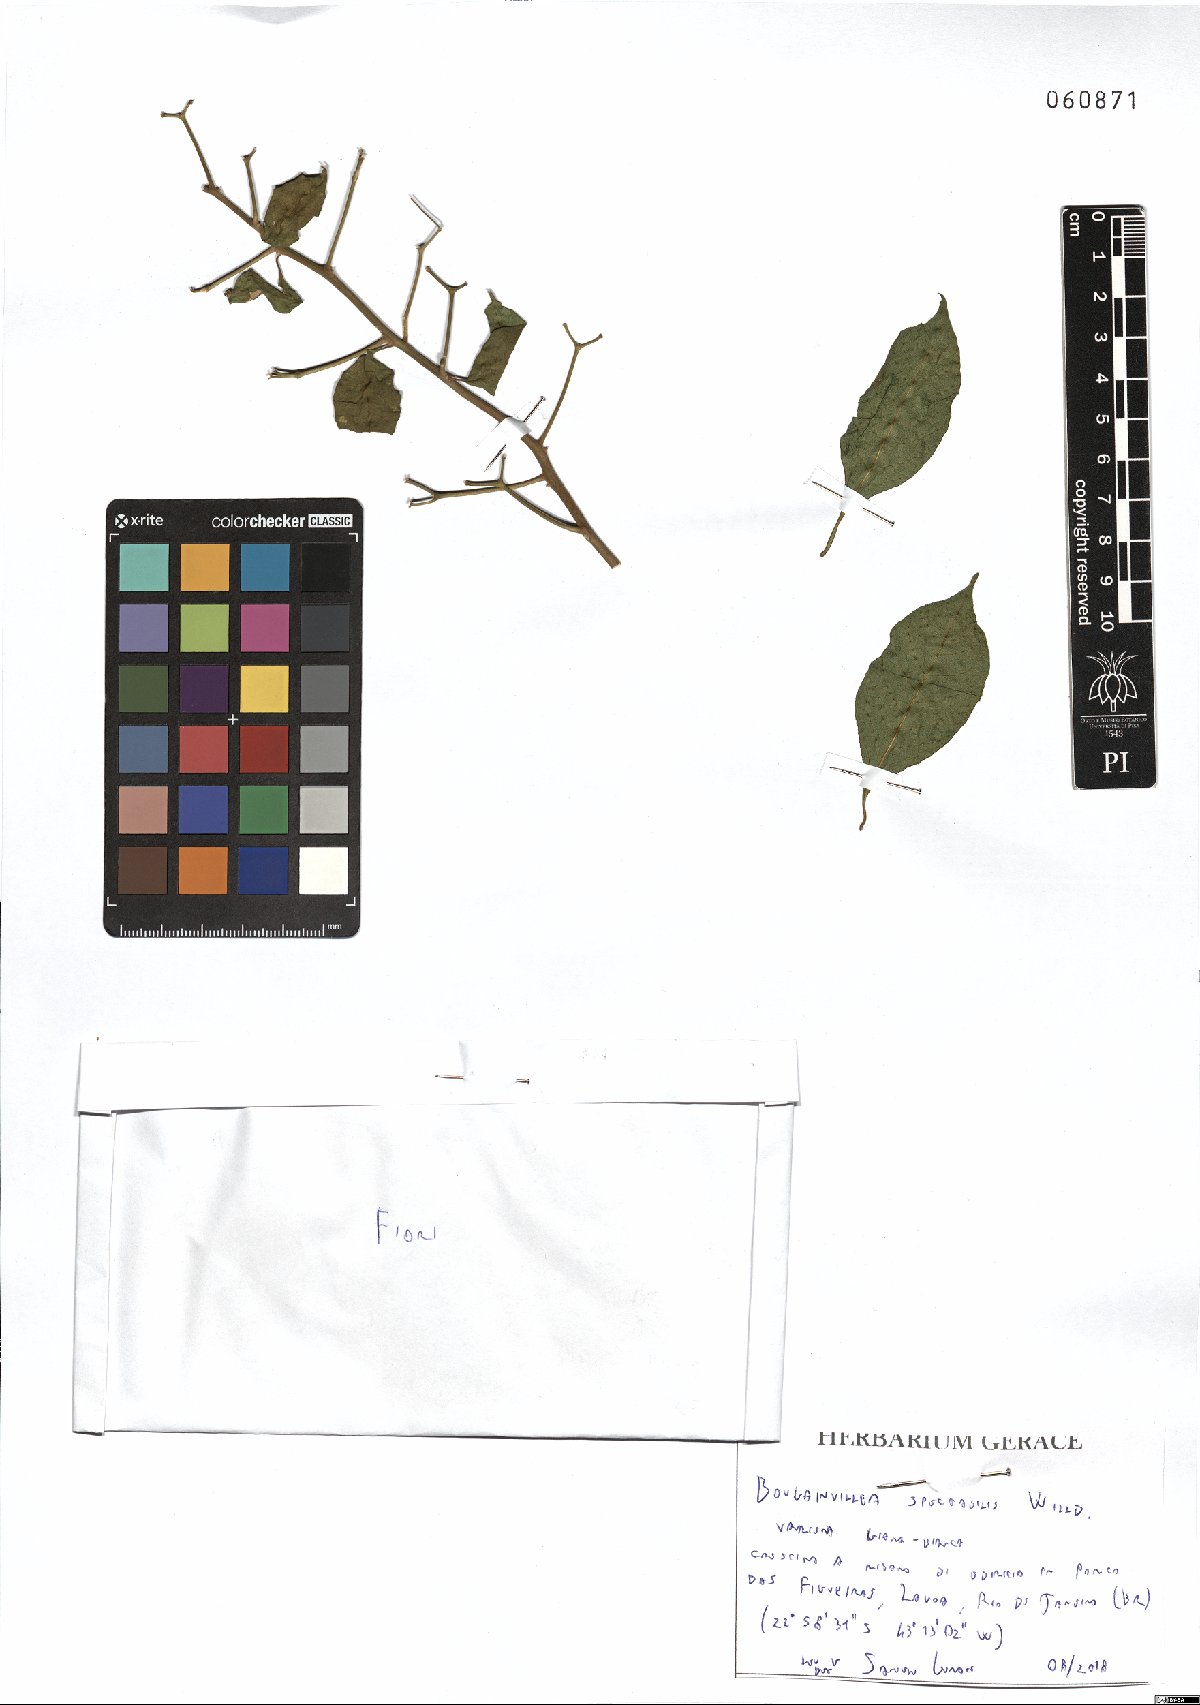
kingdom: Plantae
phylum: Tracheophyta
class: Magnoliopsida
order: Caryophyllales
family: Nyctaginaceae
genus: Bougainvillea
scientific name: Bougainvillea spectabilis
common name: Great bougainvillea
